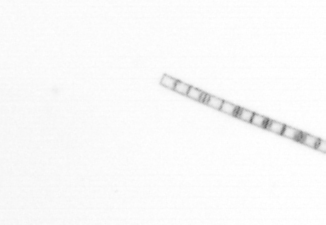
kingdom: Chromista
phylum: Ochrophyta
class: Bacillariophyceae
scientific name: Bacillariophyceae
